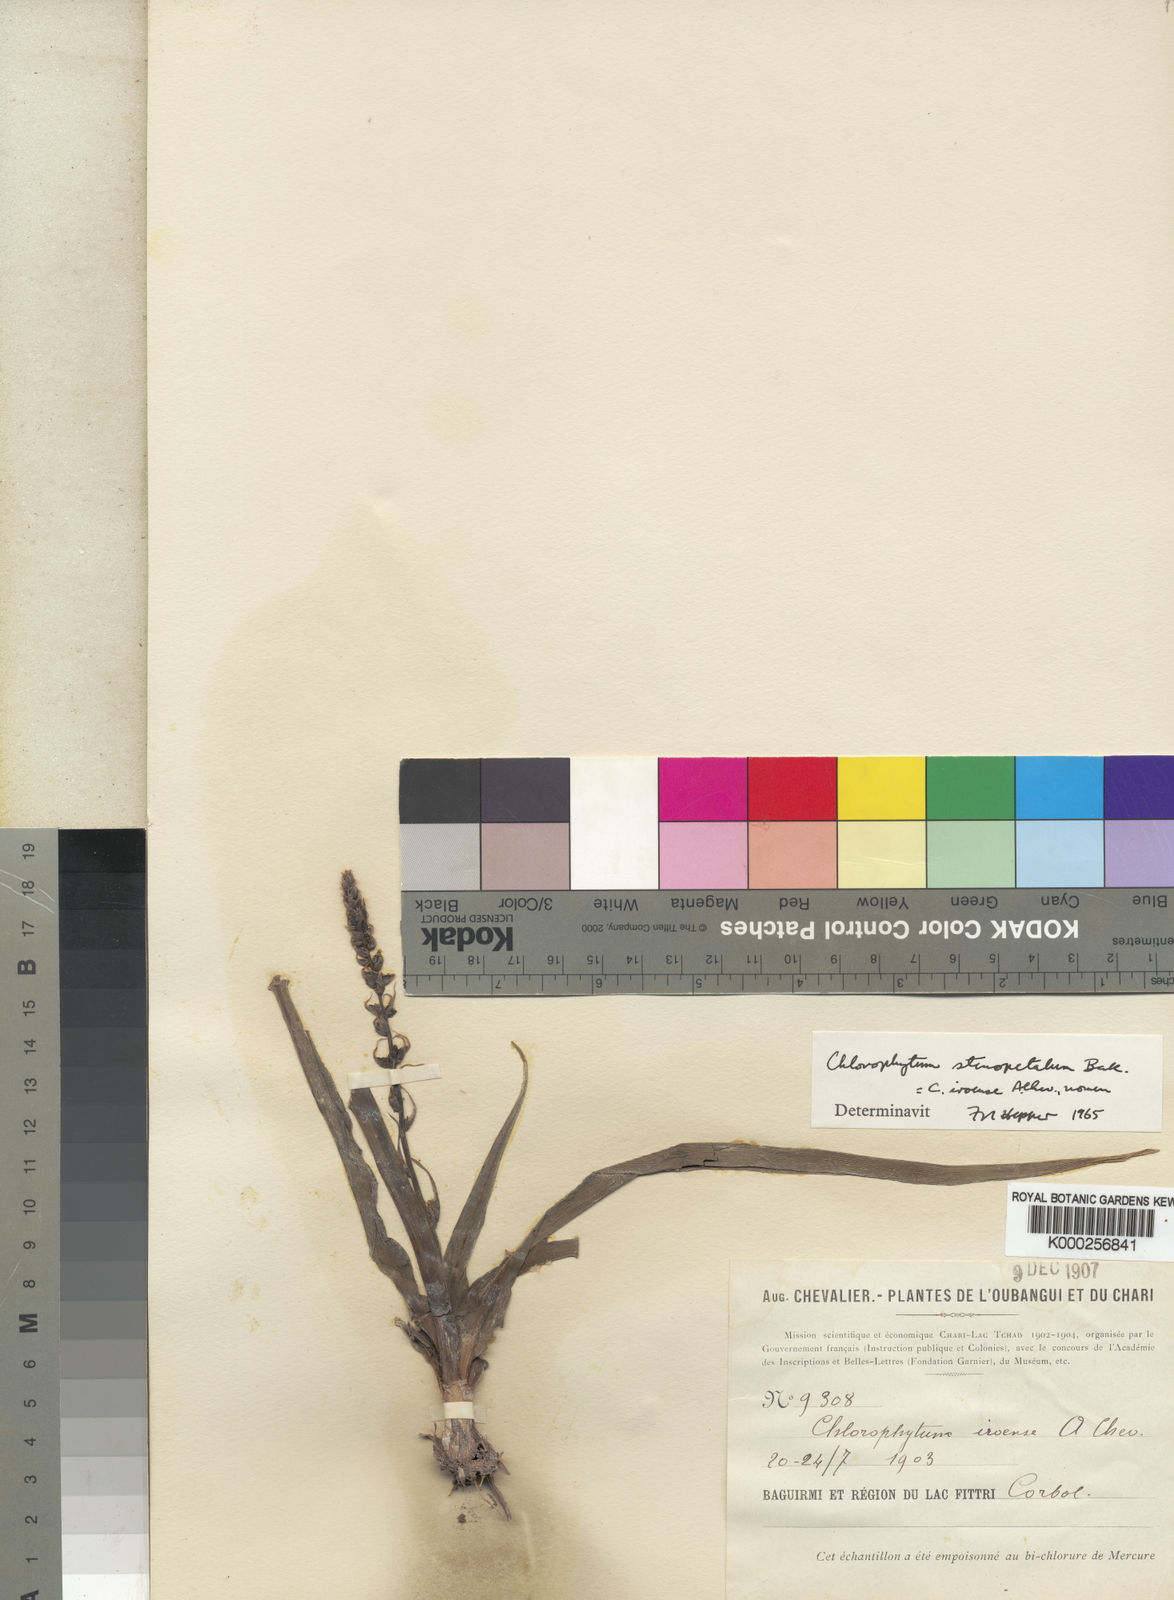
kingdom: Plantae
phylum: Tracheophyta
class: Liliopsida
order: Asparagales
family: Asparagaceae
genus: Chlorophytum
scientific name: Chlorophytum stenopetalum
